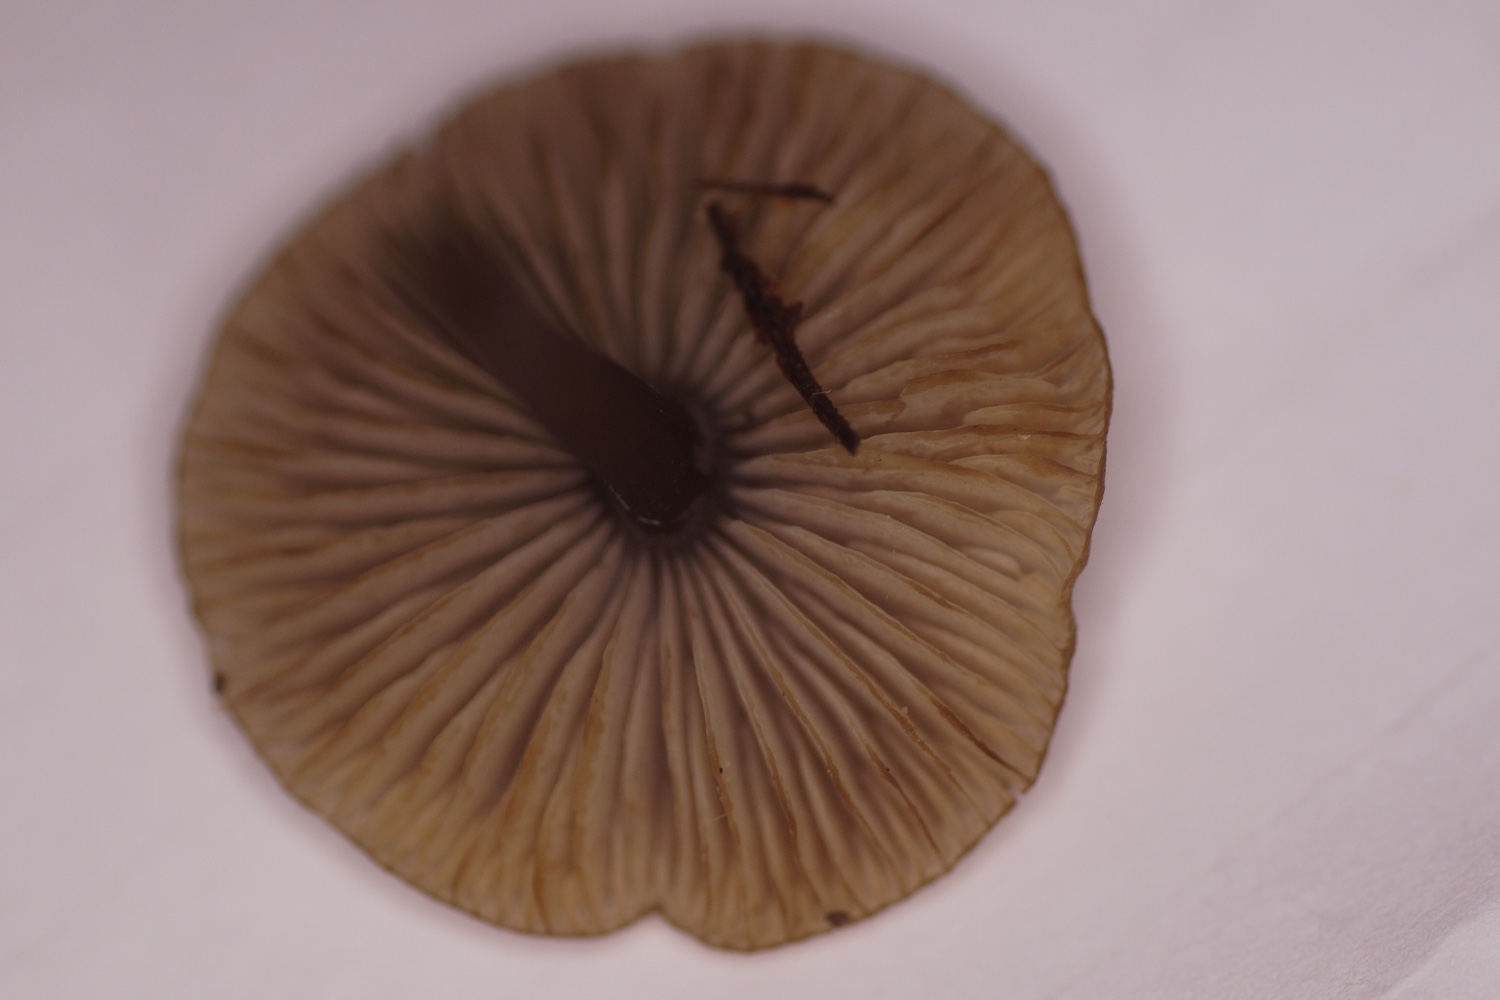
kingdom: Fungi
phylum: Basidiomycota
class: Agaricomycetes
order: Agaricales
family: Lyophyllaceae
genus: Sphagnurus
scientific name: Sphagnurus paluster
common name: tørvemos-gråblad
